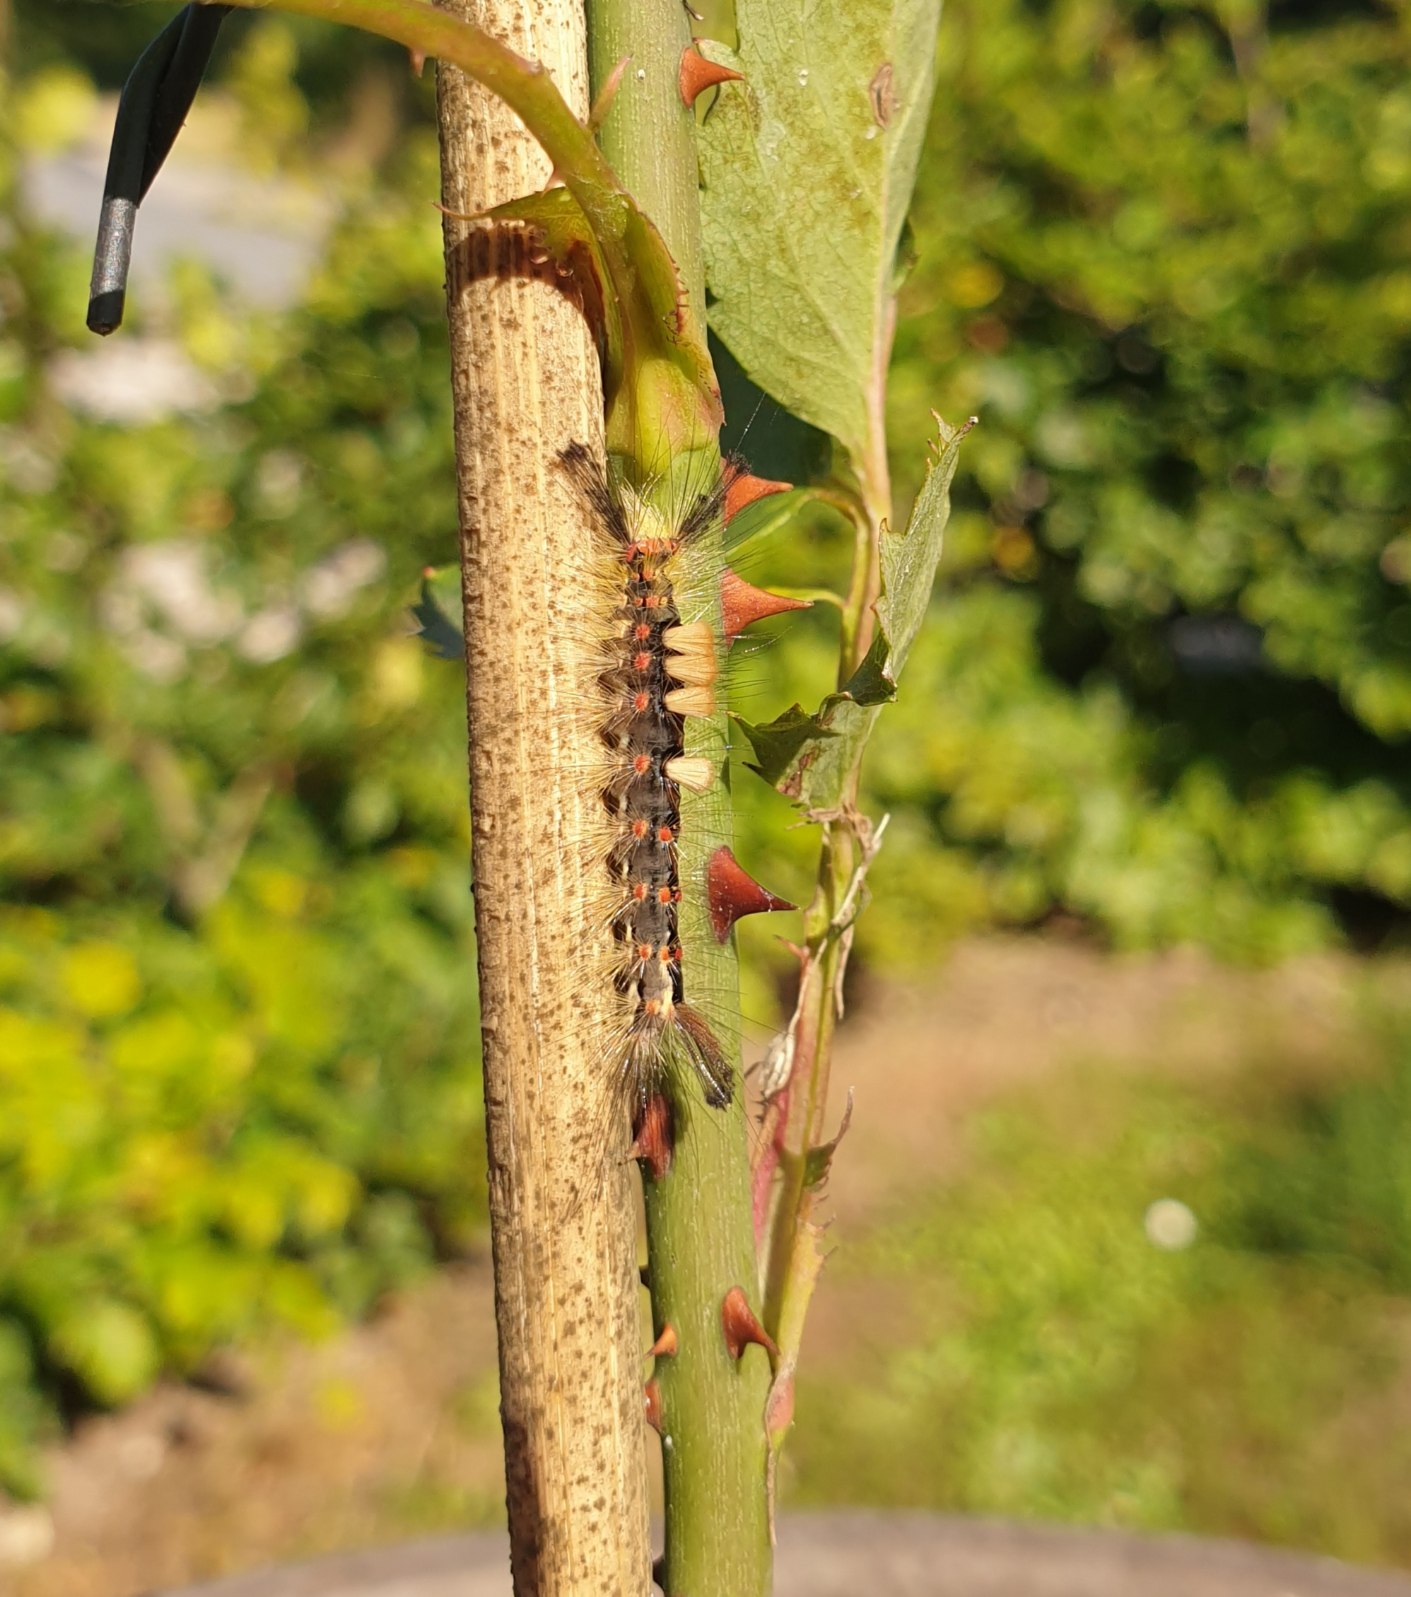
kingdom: Animalia
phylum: Arthropoda
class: Insecta
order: Lepidoptera
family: Erebidae
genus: Orgyia
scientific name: Orgyia antiqua
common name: Lille penselspinder
